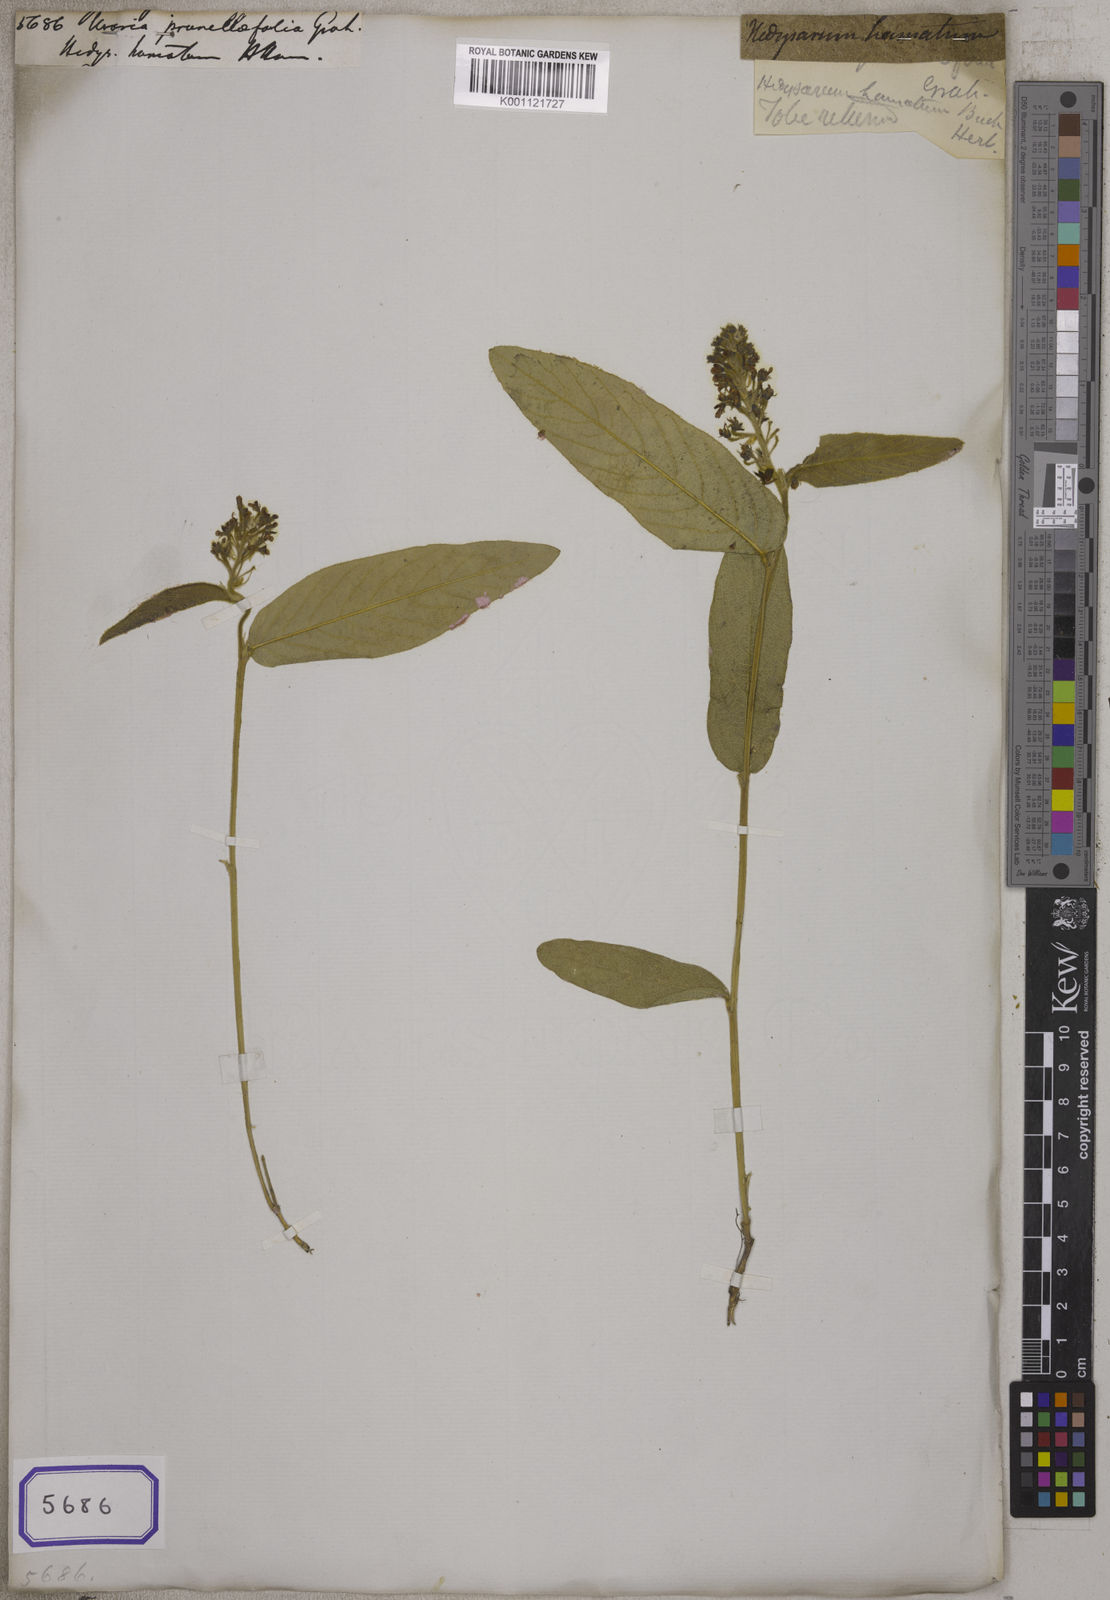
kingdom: Plantae
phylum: Tracheophyta
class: Magnoliopsida
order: Fabales
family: Fabaceae
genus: Uraria
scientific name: Uraria
